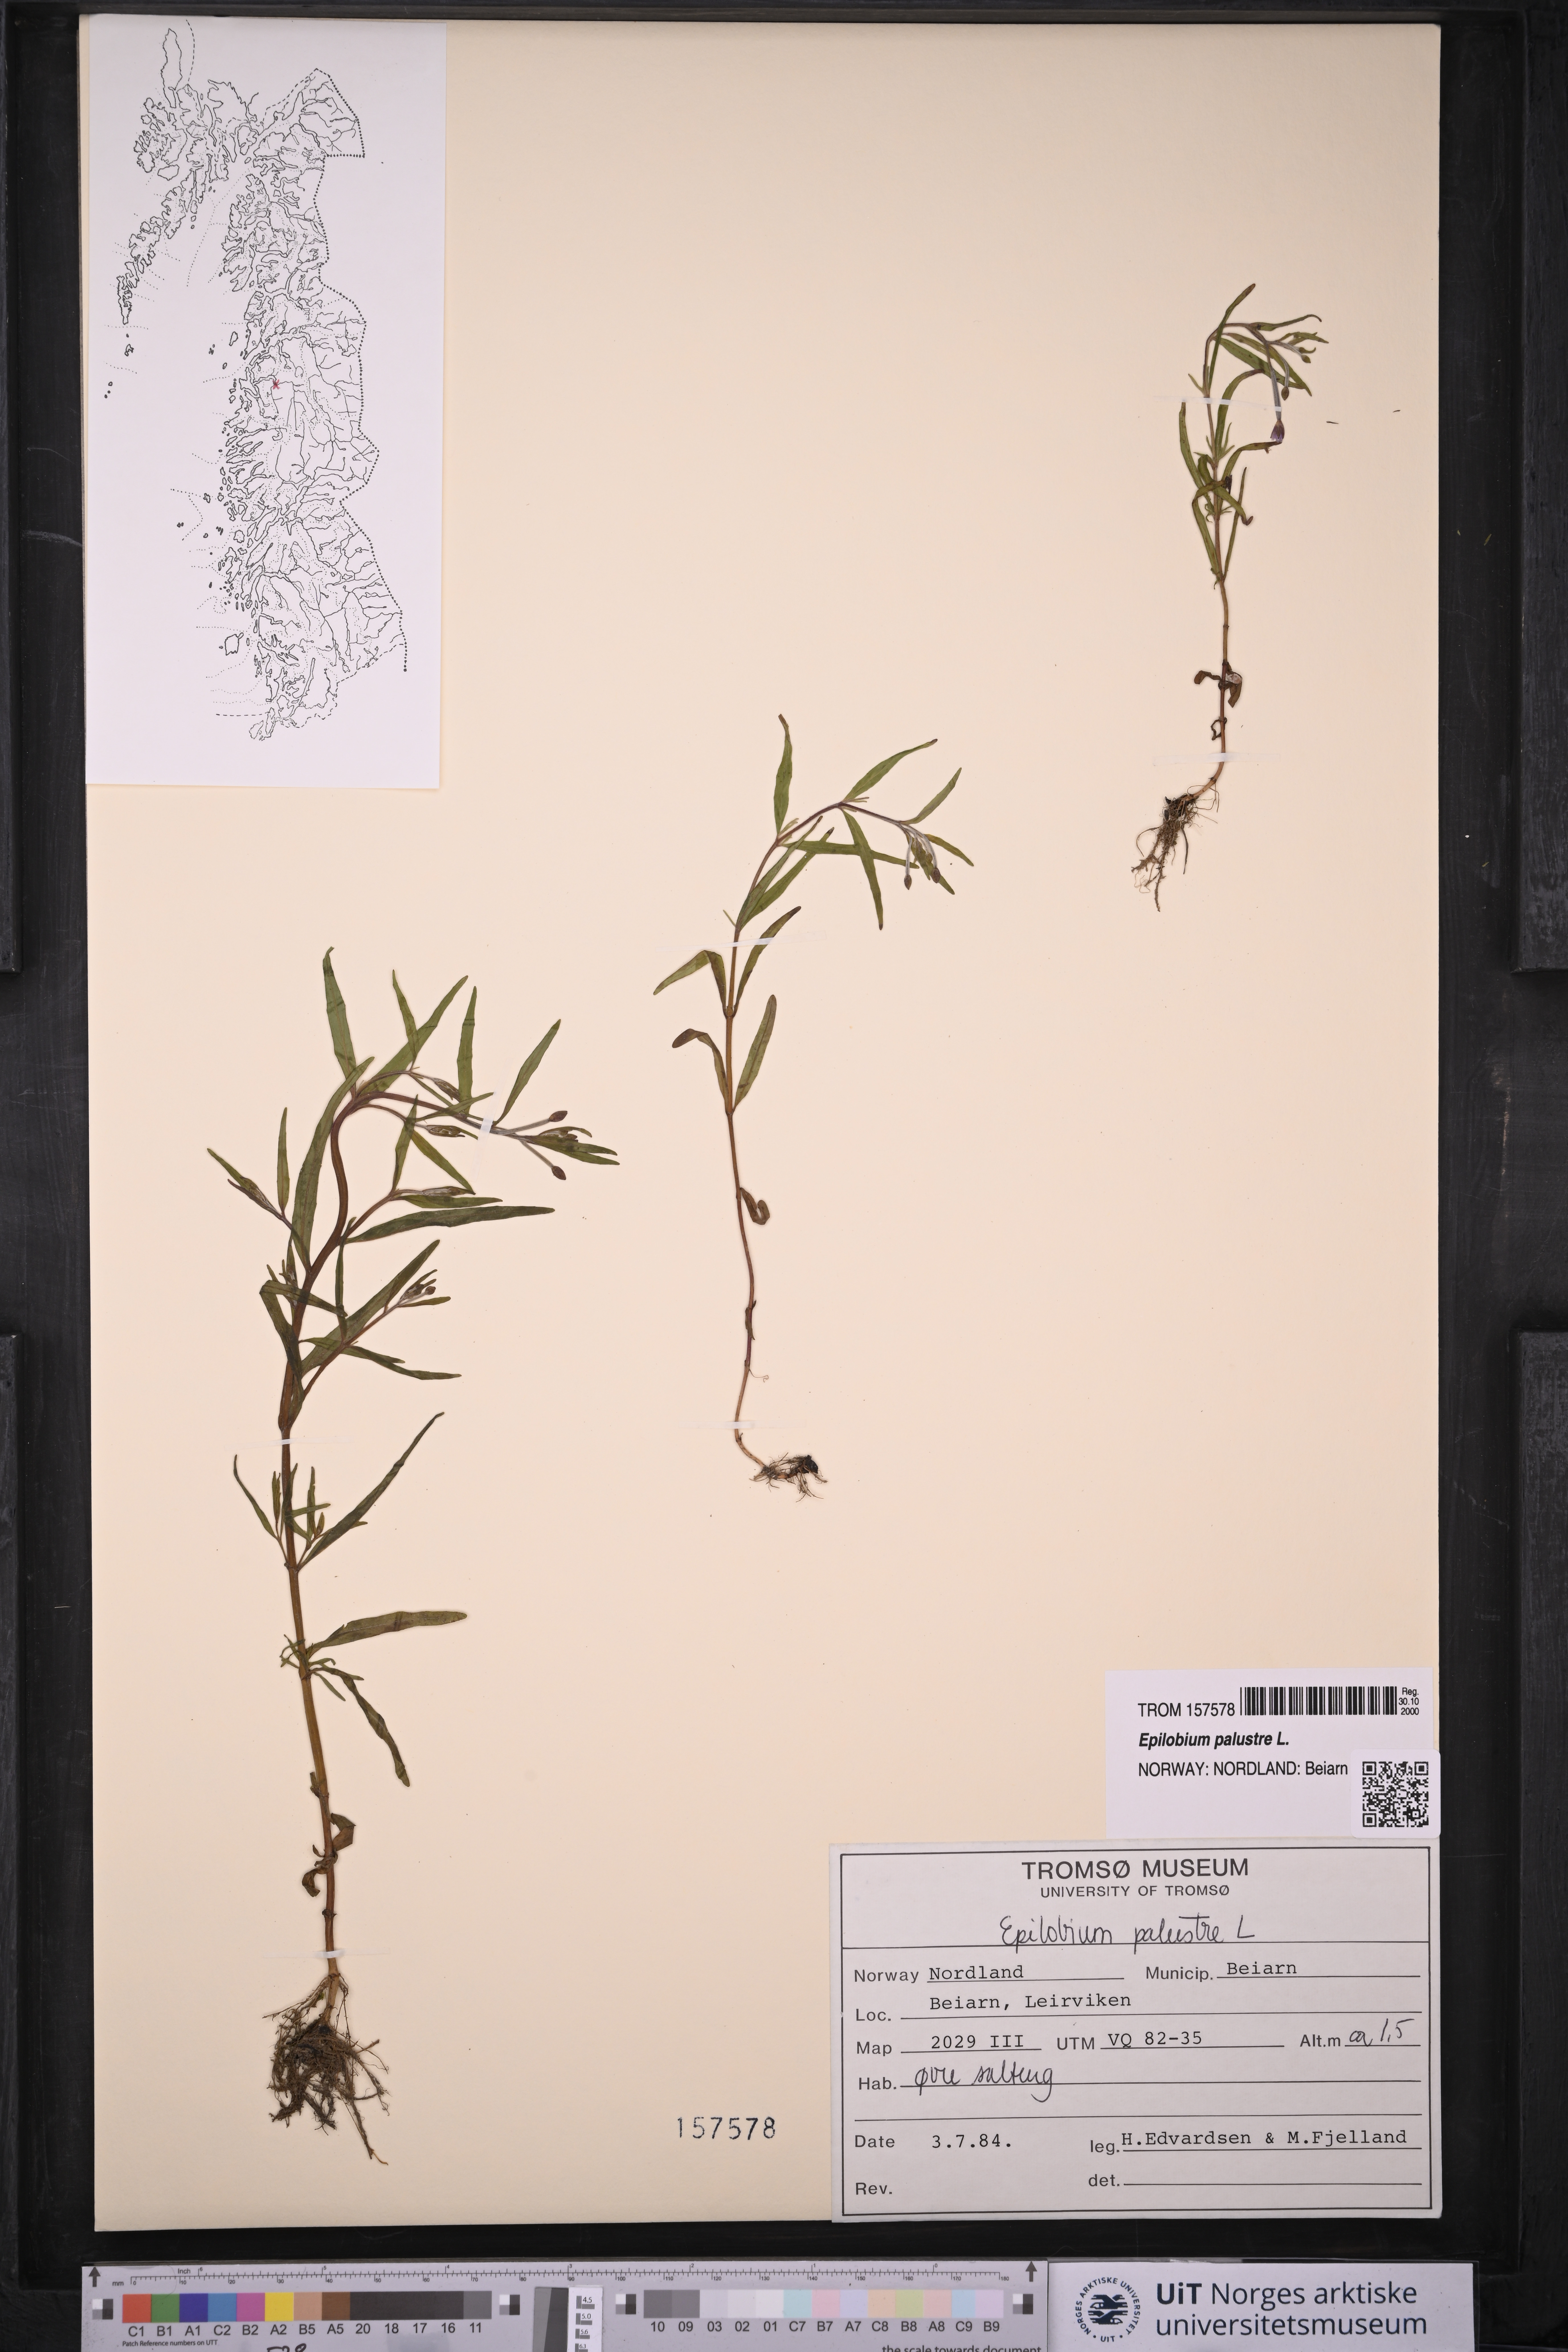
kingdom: Plantae
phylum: Tracheophyta
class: Magnoliopsida
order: Myrtales
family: Onagraceae
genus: Epilobium
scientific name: Epilobium palustre
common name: Marsh willowherb
